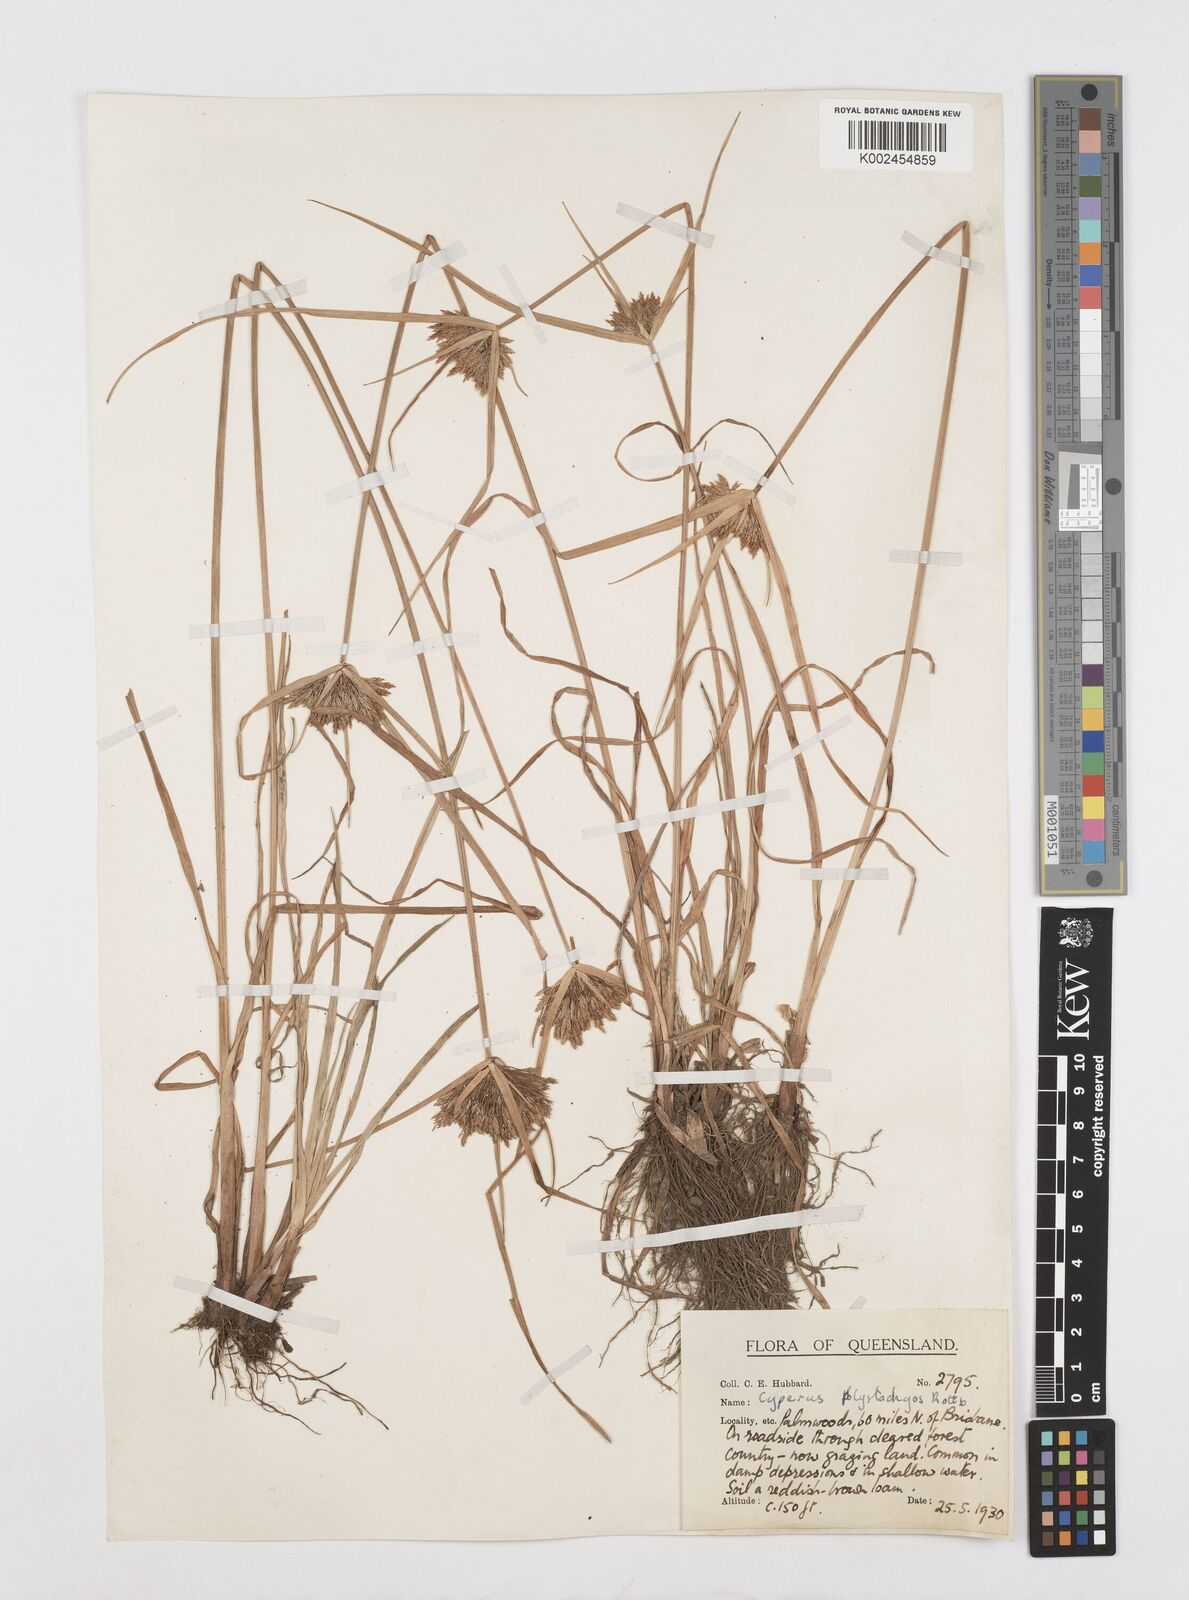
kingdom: Plantae
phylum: Tracheophyta
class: Liliopsida
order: Poales
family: Cyperaceae
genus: Cyperus
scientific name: Cyperus polystachyos
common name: Bunchy flat sedge
